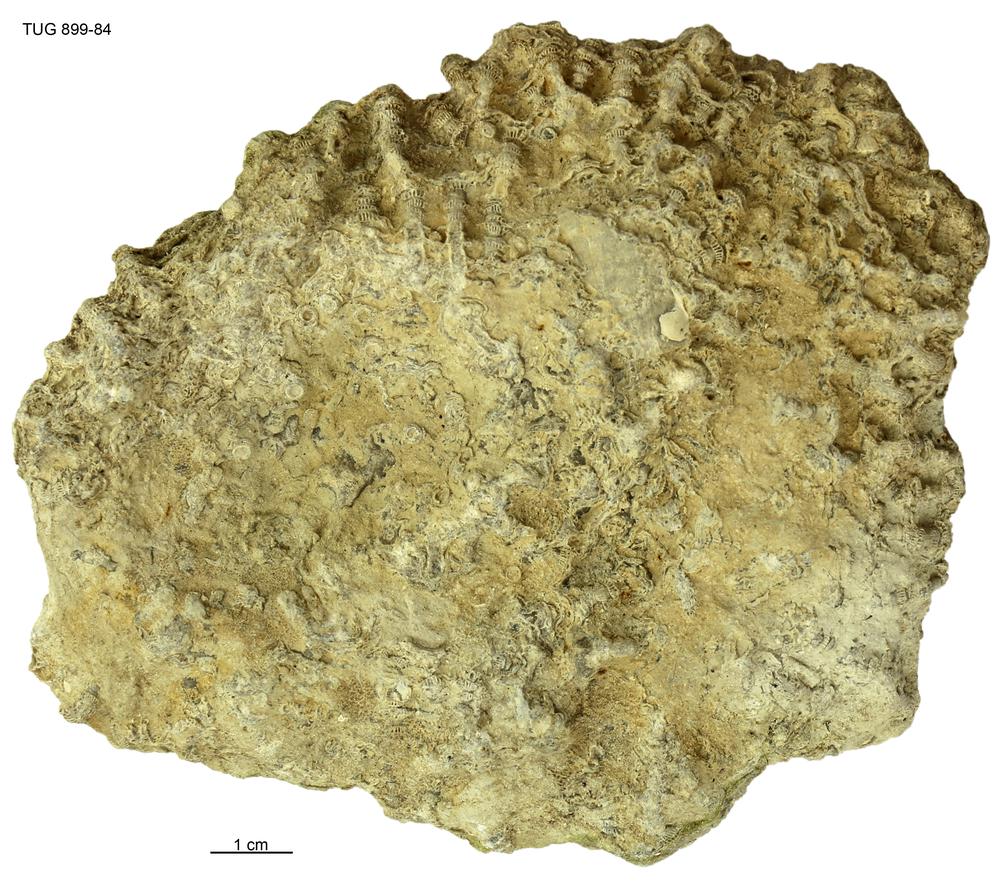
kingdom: Animalia
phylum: Cnidaria
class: Anthozoa
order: Heliolitina
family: Heliolitidae
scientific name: Heliolitidae
